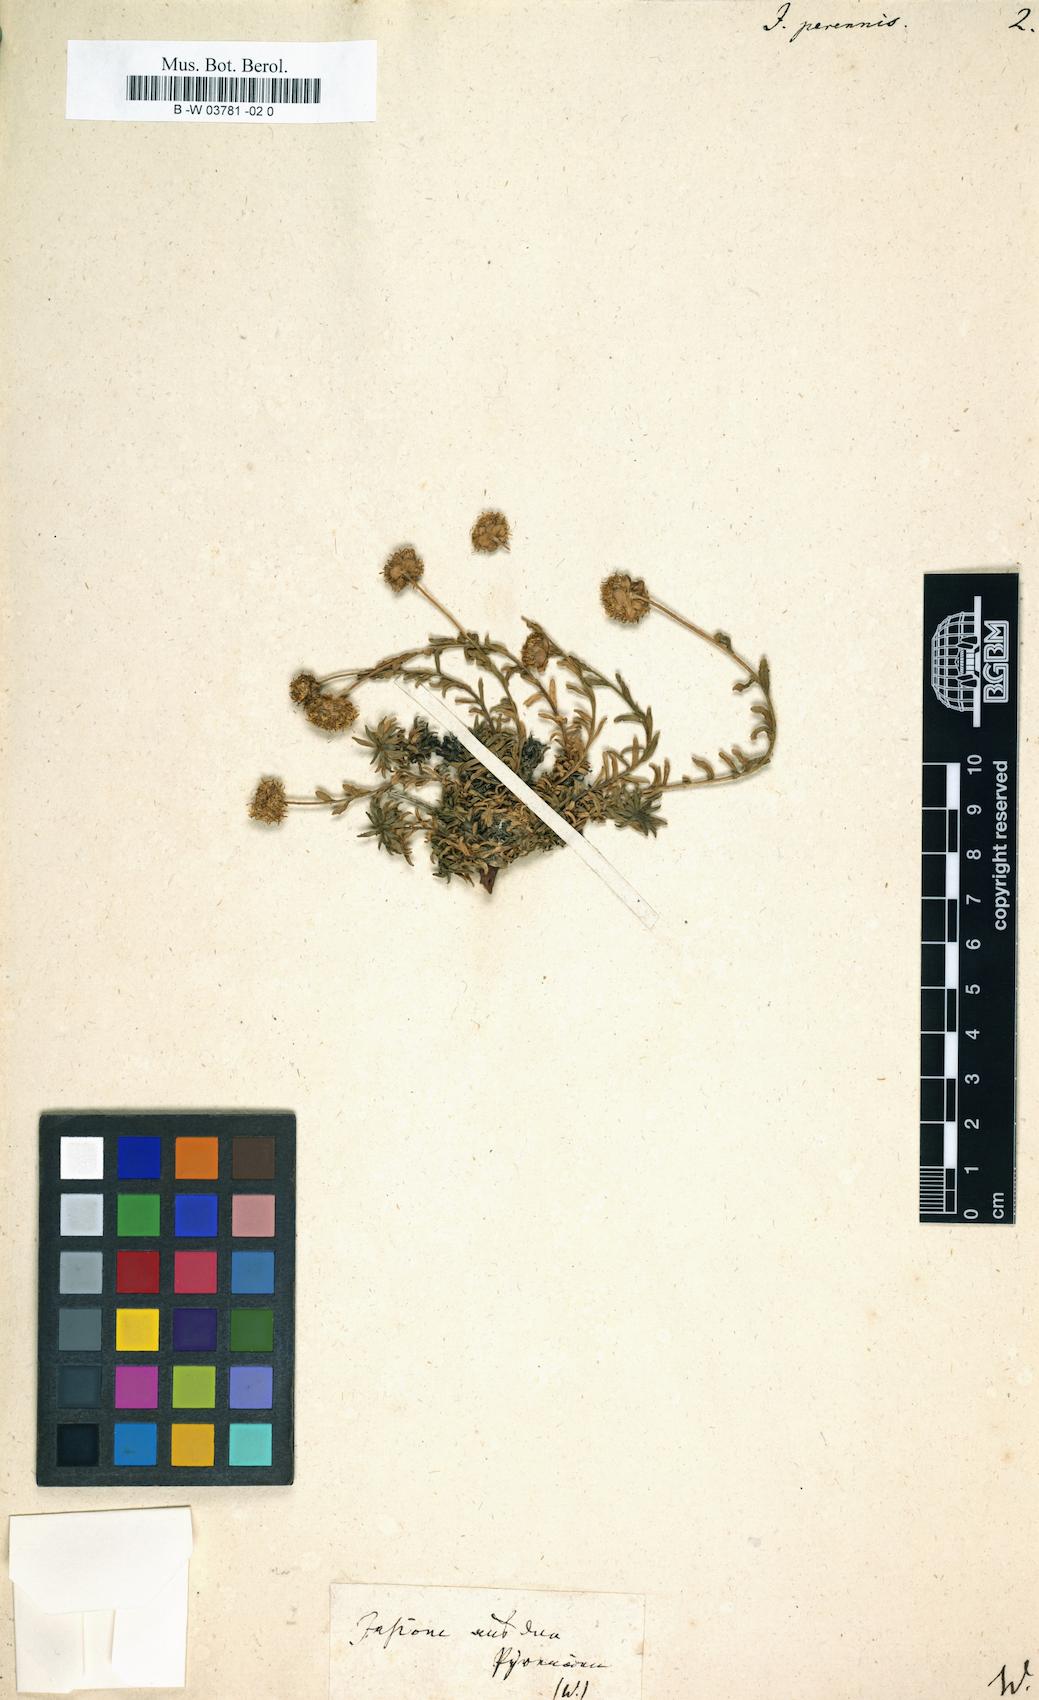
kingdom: Plantae
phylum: Tracheophyta
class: Magnoliopsida
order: Asterales
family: Campanulaceae
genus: Jasione
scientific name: Jasione perennis
